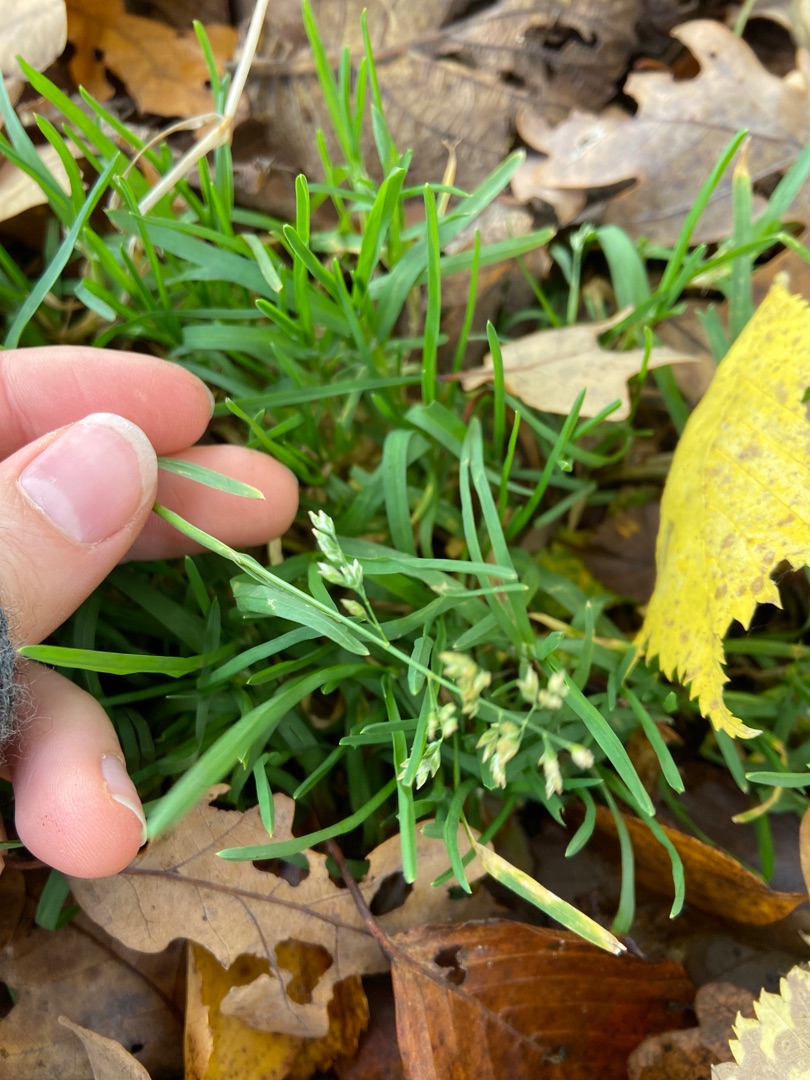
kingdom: Plantae
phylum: Tracheophyta
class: Liliopsida
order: Poales
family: Poaceae
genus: Poa
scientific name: Poa annua
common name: Enårig rapgræs
